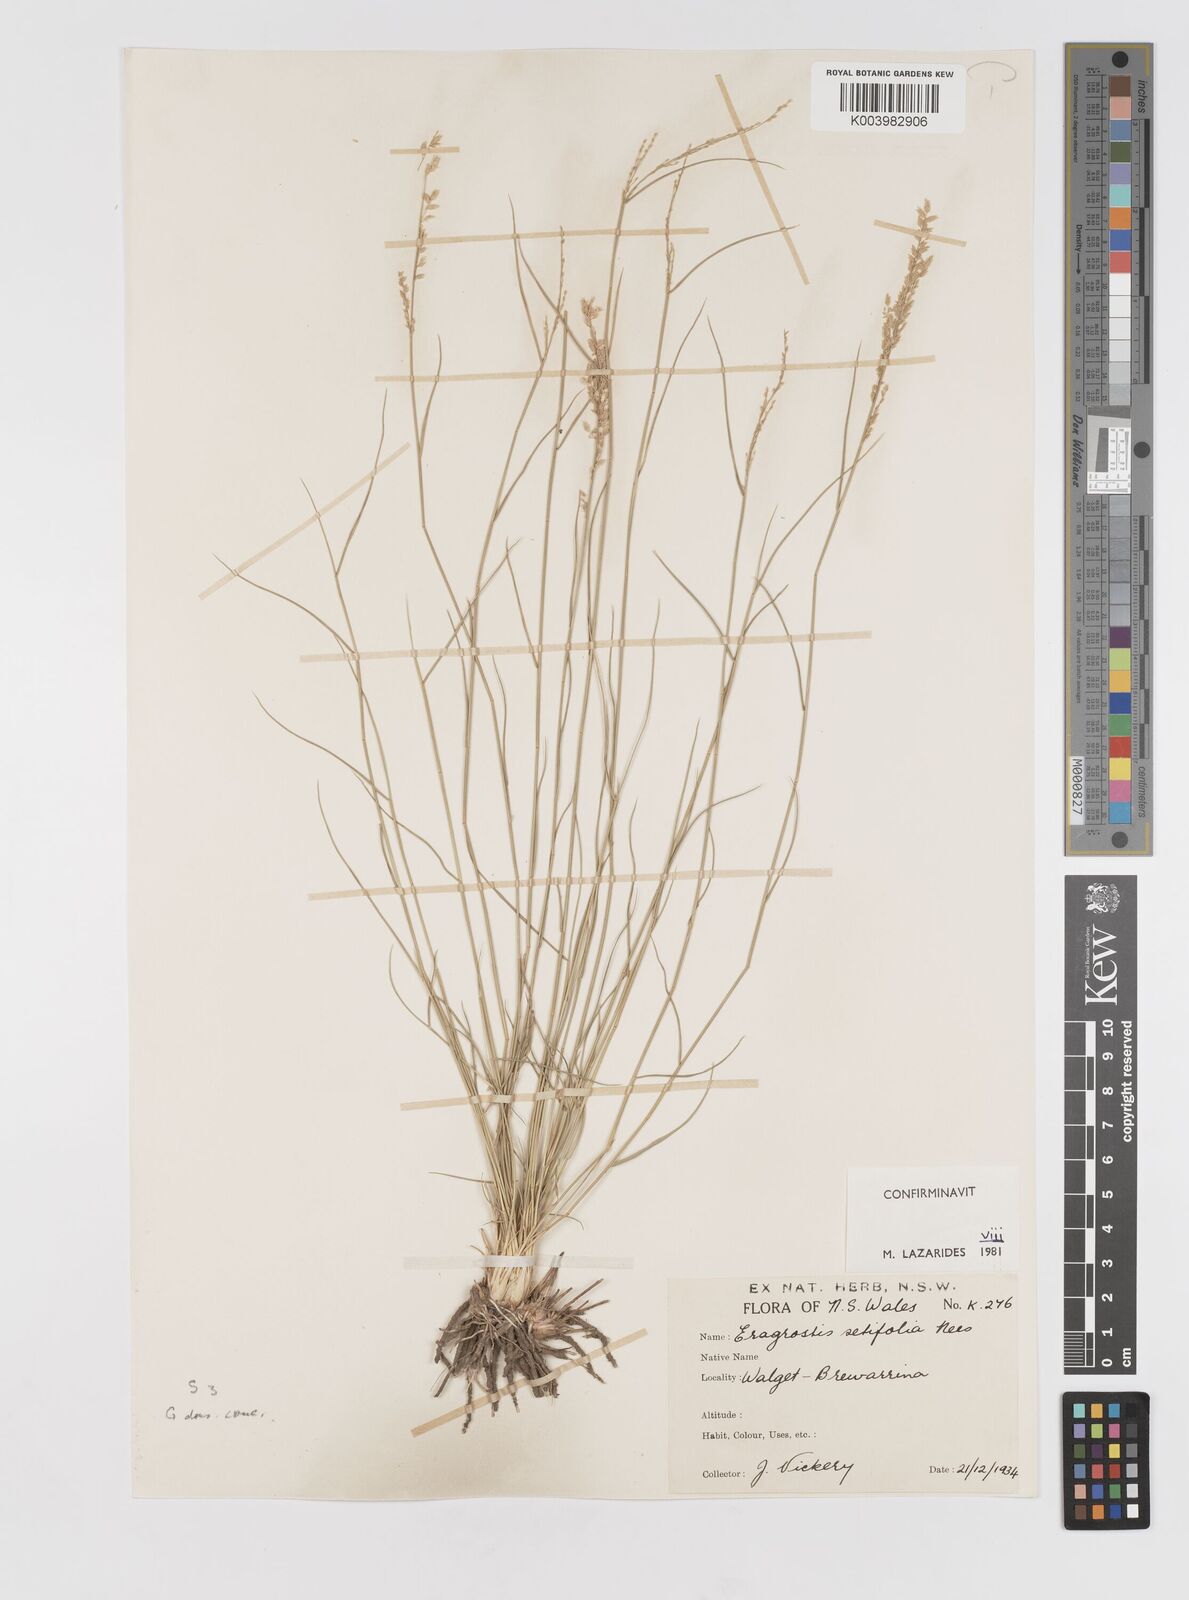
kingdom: Plantae
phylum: Tracheophyta
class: Liliopsida
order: Poales
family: Poaceae
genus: Eragrostis
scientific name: Eragrostis setifolia
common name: Bristleleaf lovegrass
